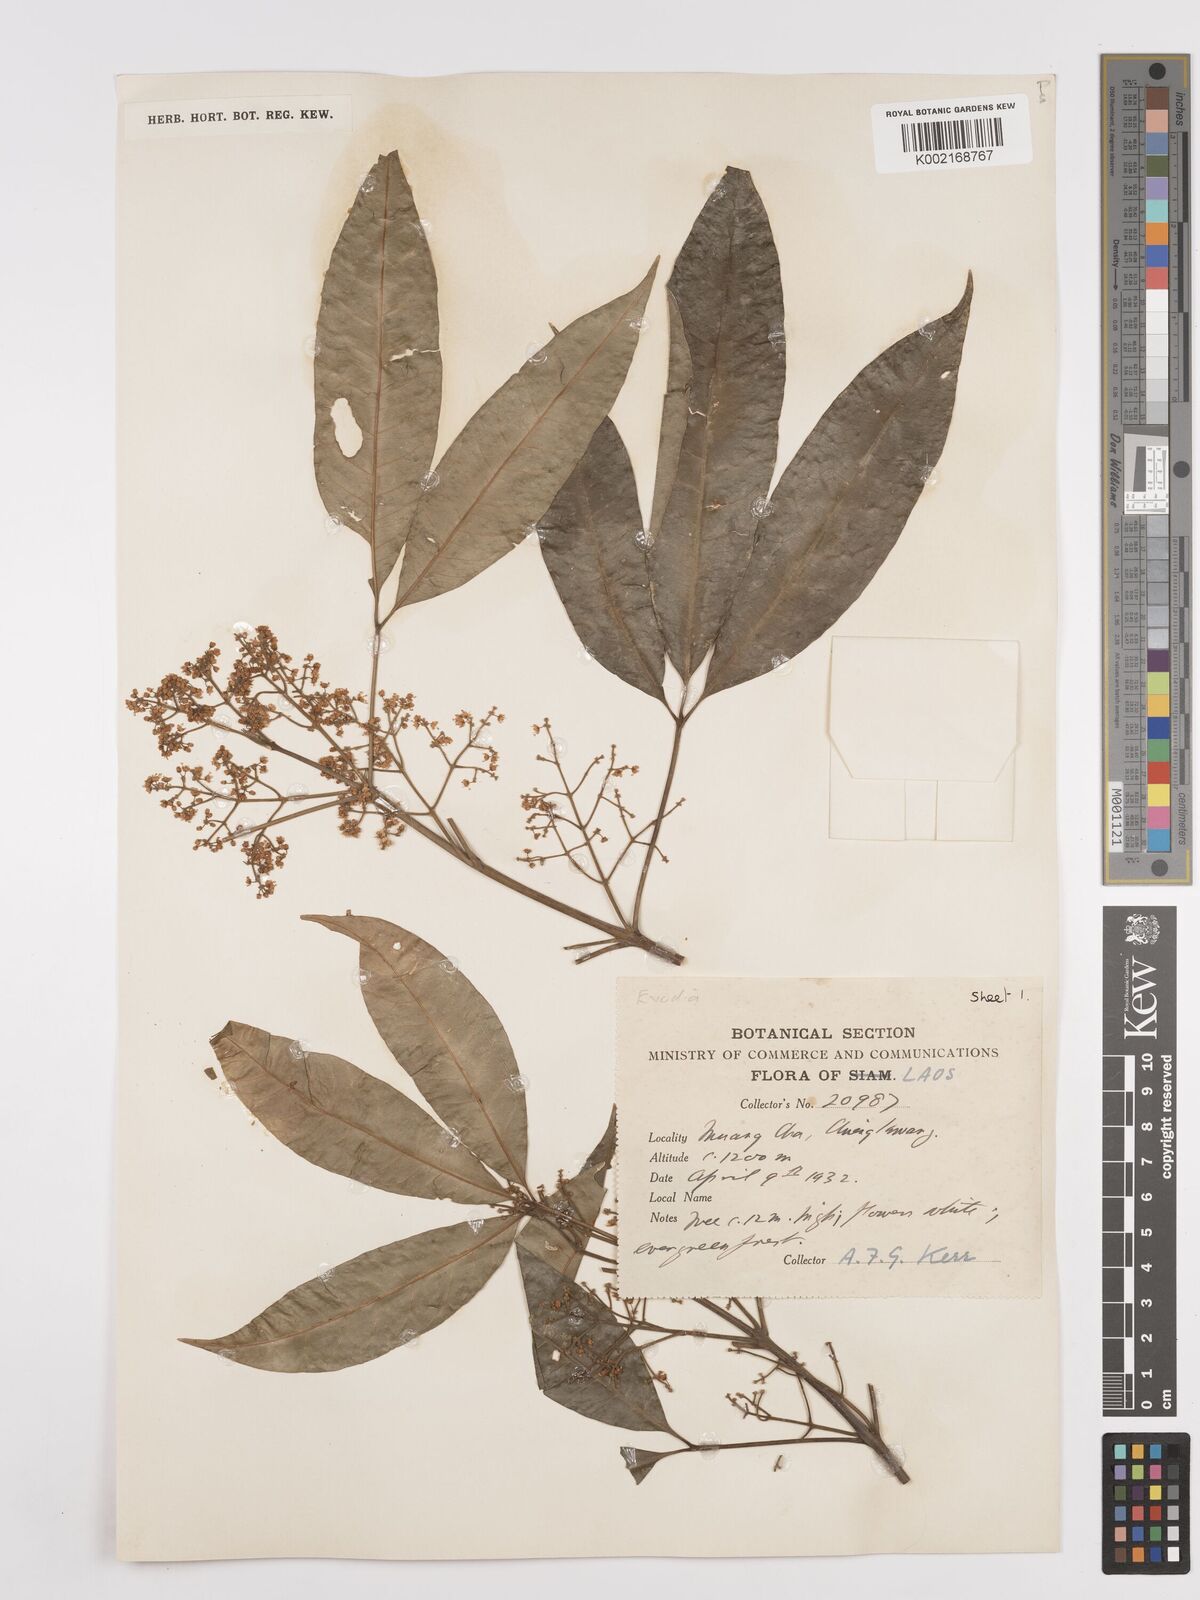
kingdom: Plantae
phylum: Tracheophyta
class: Magnoliopsida
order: Sapindales
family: Rutaceae
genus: Euodia
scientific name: Euodia
